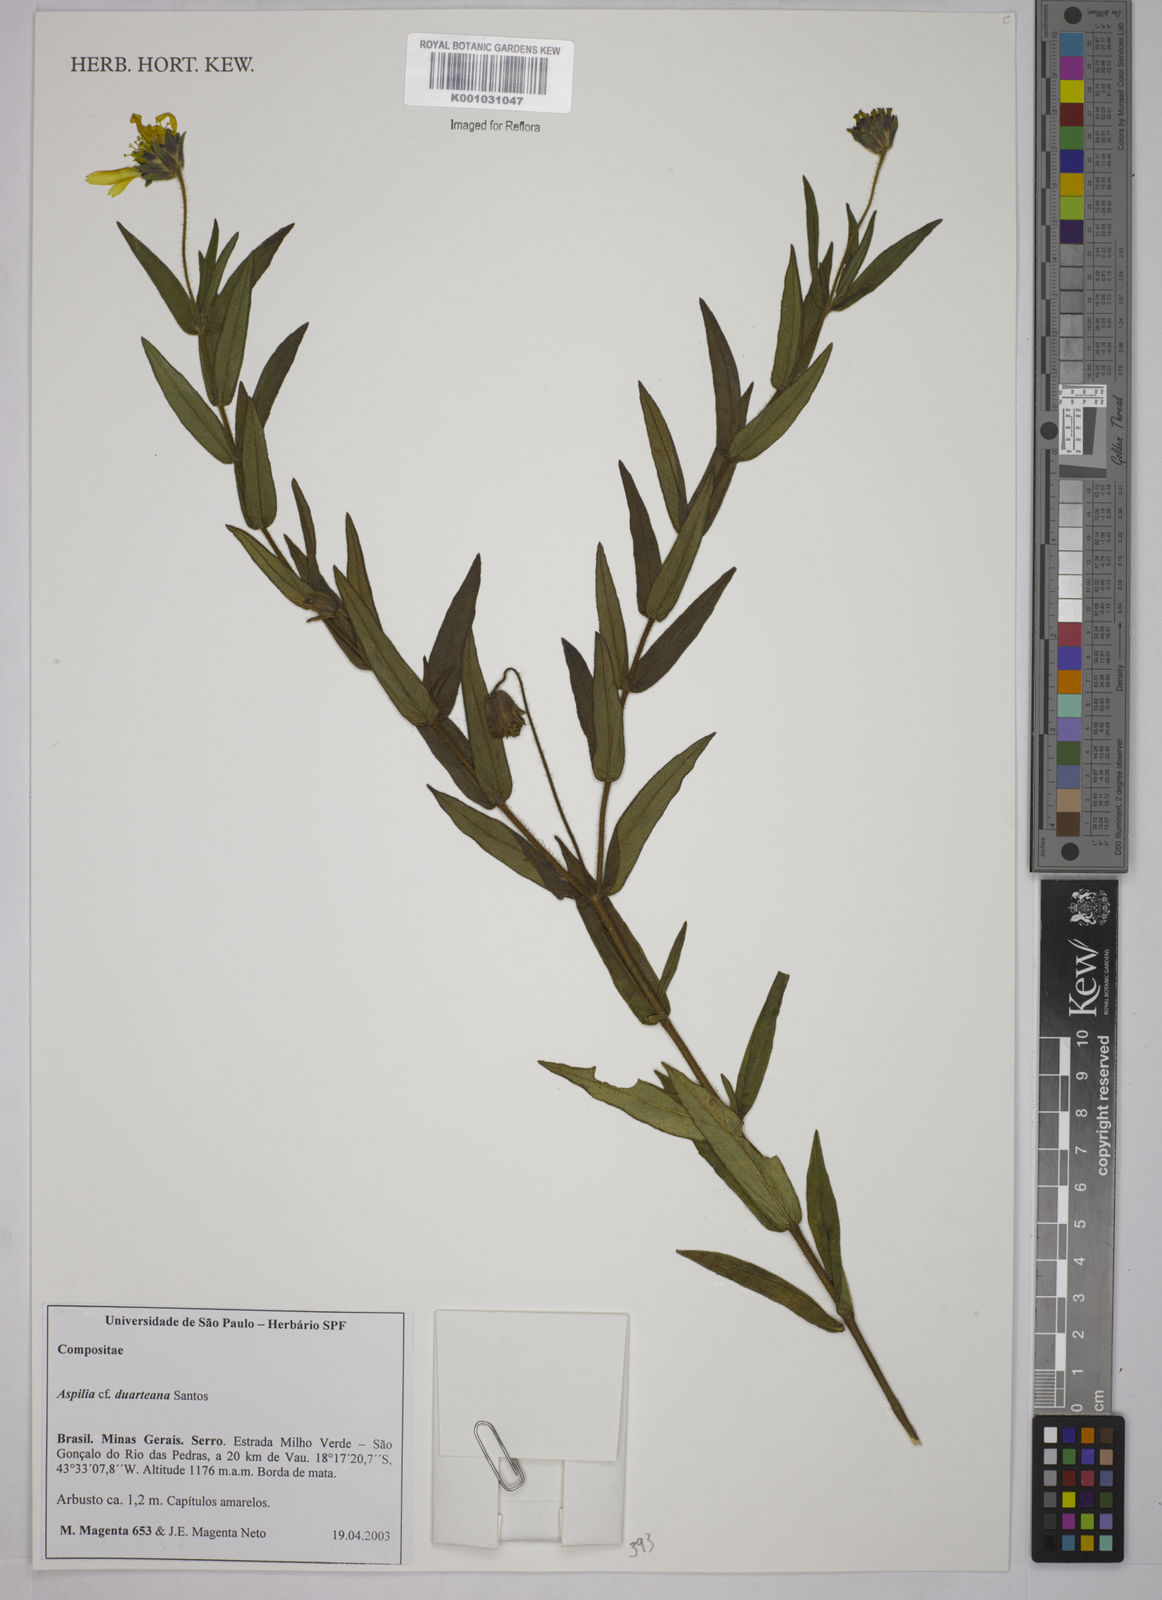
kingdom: Plantae
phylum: Tracheophyta
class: Magnoliopsida
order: Asterales
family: Asteraceae
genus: Aspilia
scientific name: Aspilia duarteana
